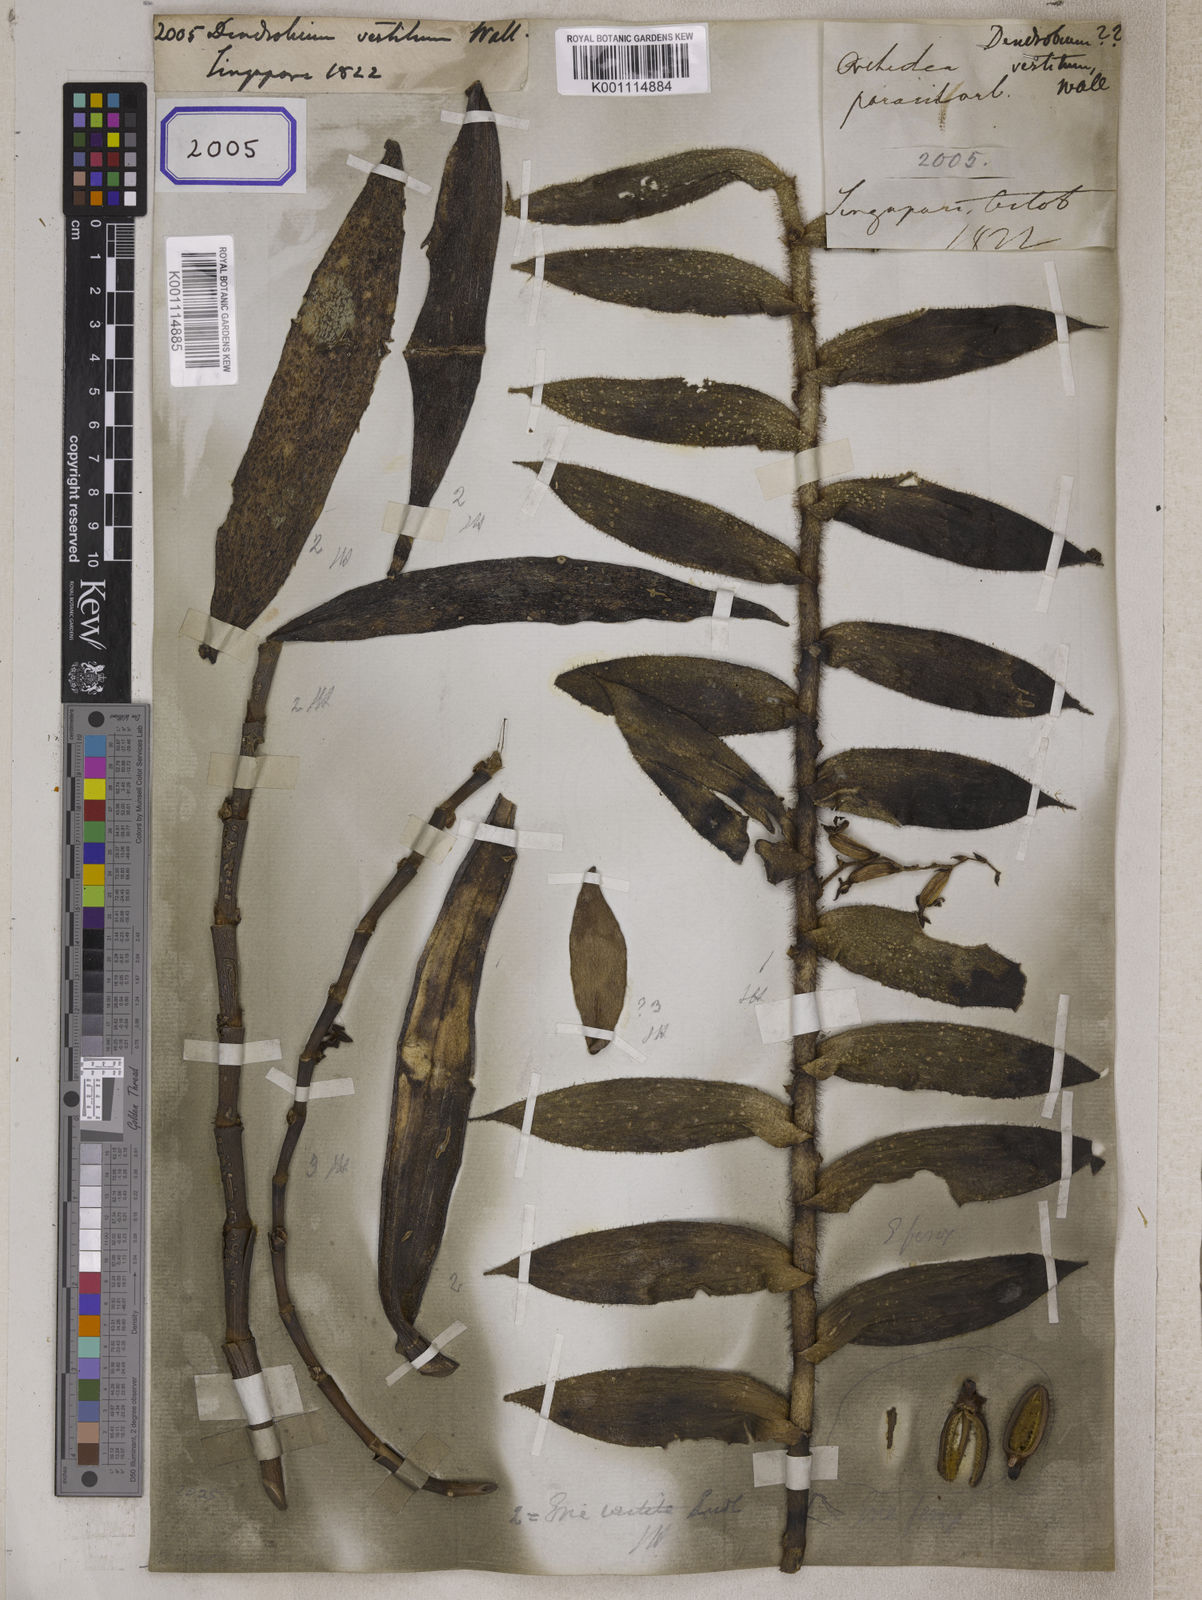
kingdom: Plantae
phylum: Tracheophyta
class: Liliopsida
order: Asparagales
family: Orchidaceae
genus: Dendrobium
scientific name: Dendrobium
